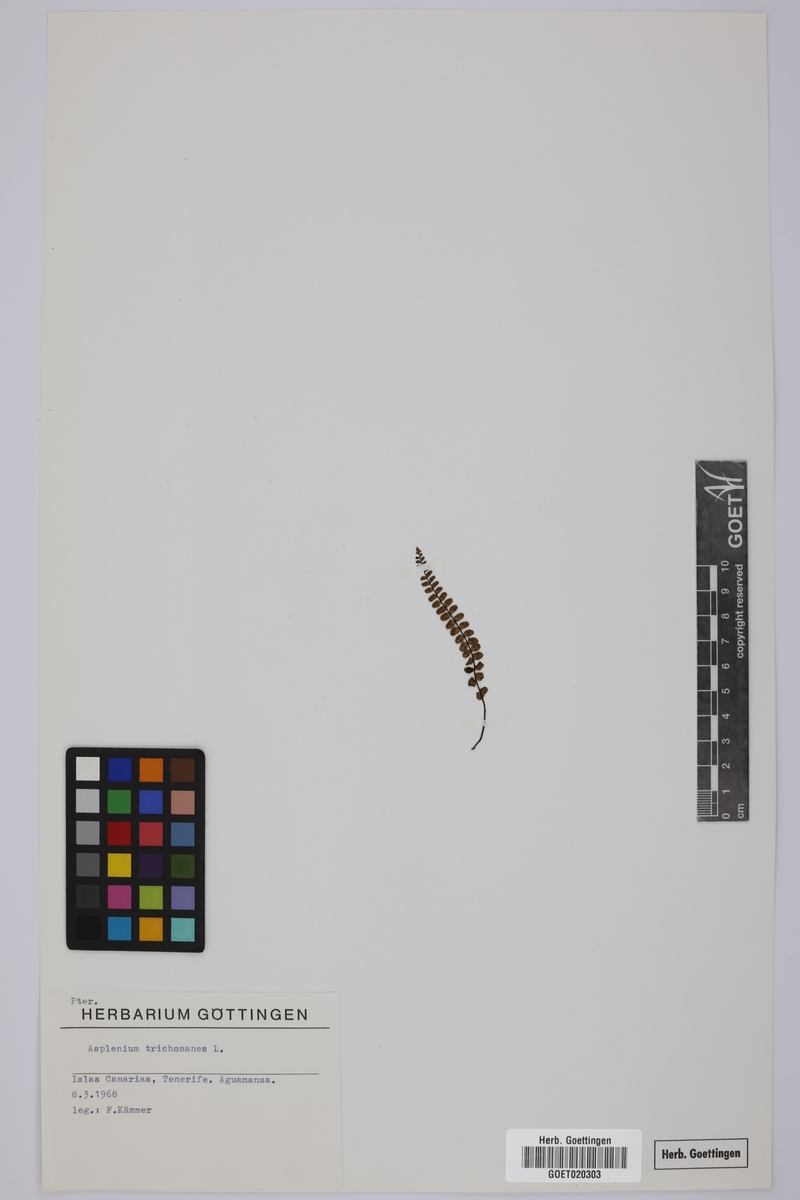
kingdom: Plantae
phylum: Tracheophyta
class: Polypodiopsida
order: Polypodiales
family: Aspleniaceae
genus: Asplenium
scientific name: Asplenium trichomanes
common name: Maidenhair spleenwort
